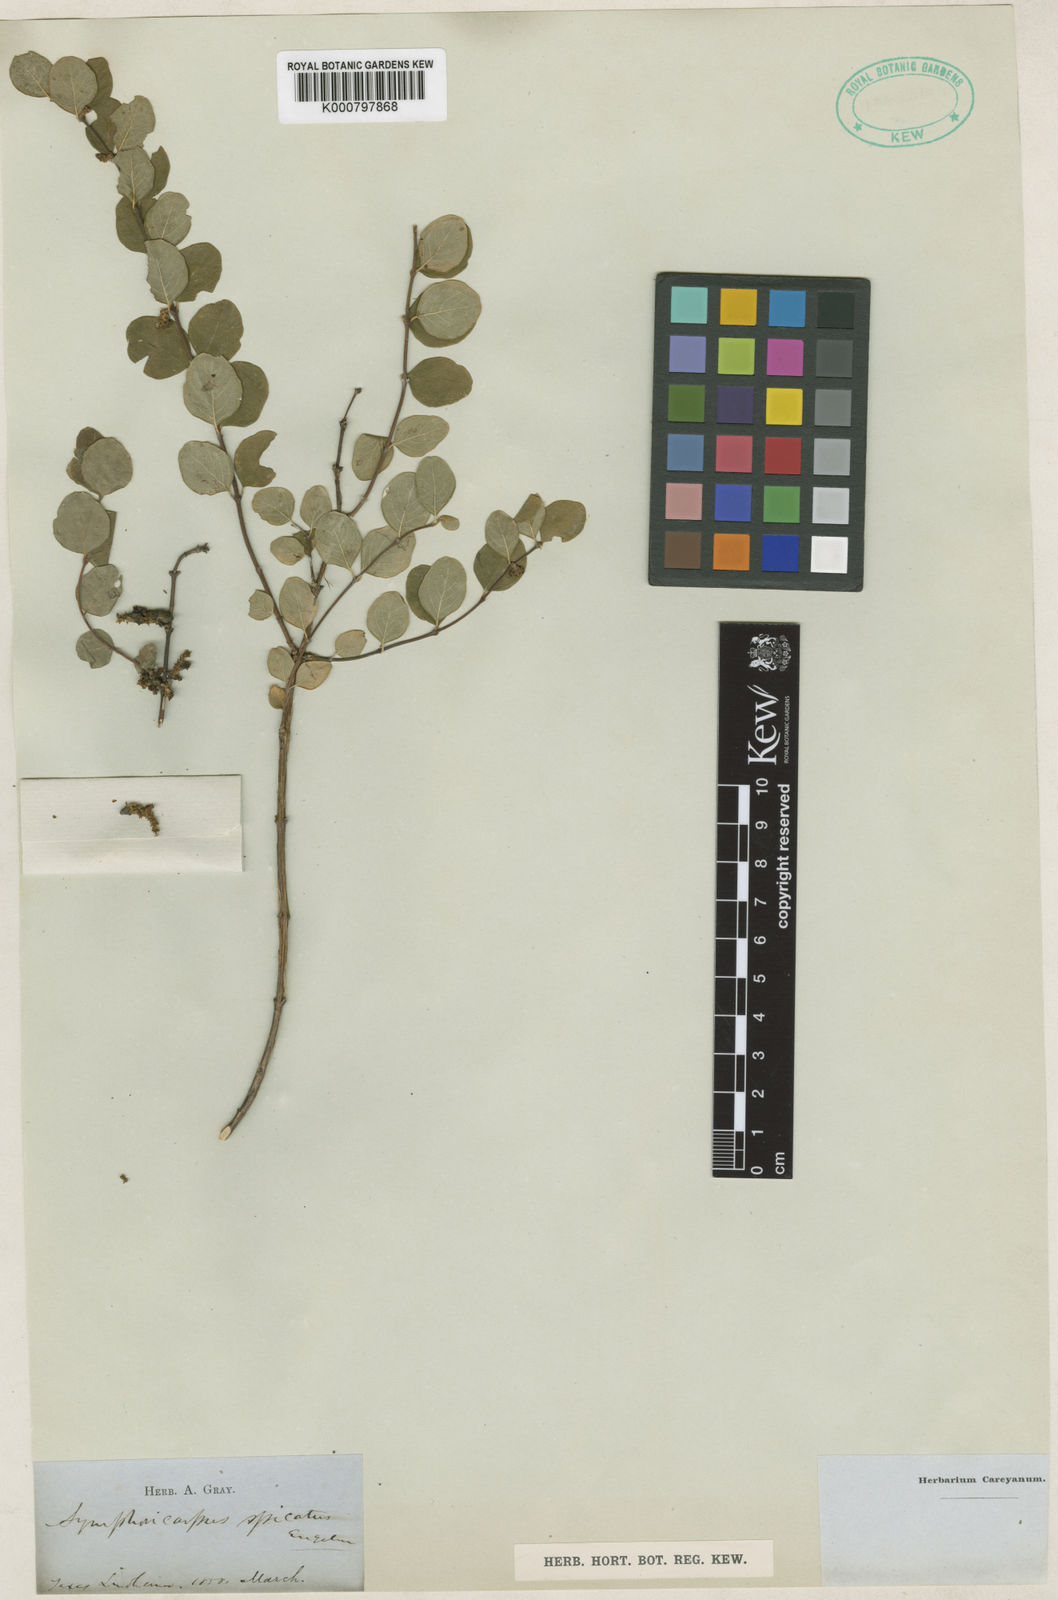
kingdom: Plantae
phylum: Tracheophyta
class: Magnoliopsida
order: Dipsacales
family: Caprifoliaceae
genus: Symphoricarpos
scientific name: Symphoricarpos orbiculatus
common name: Coralberry
